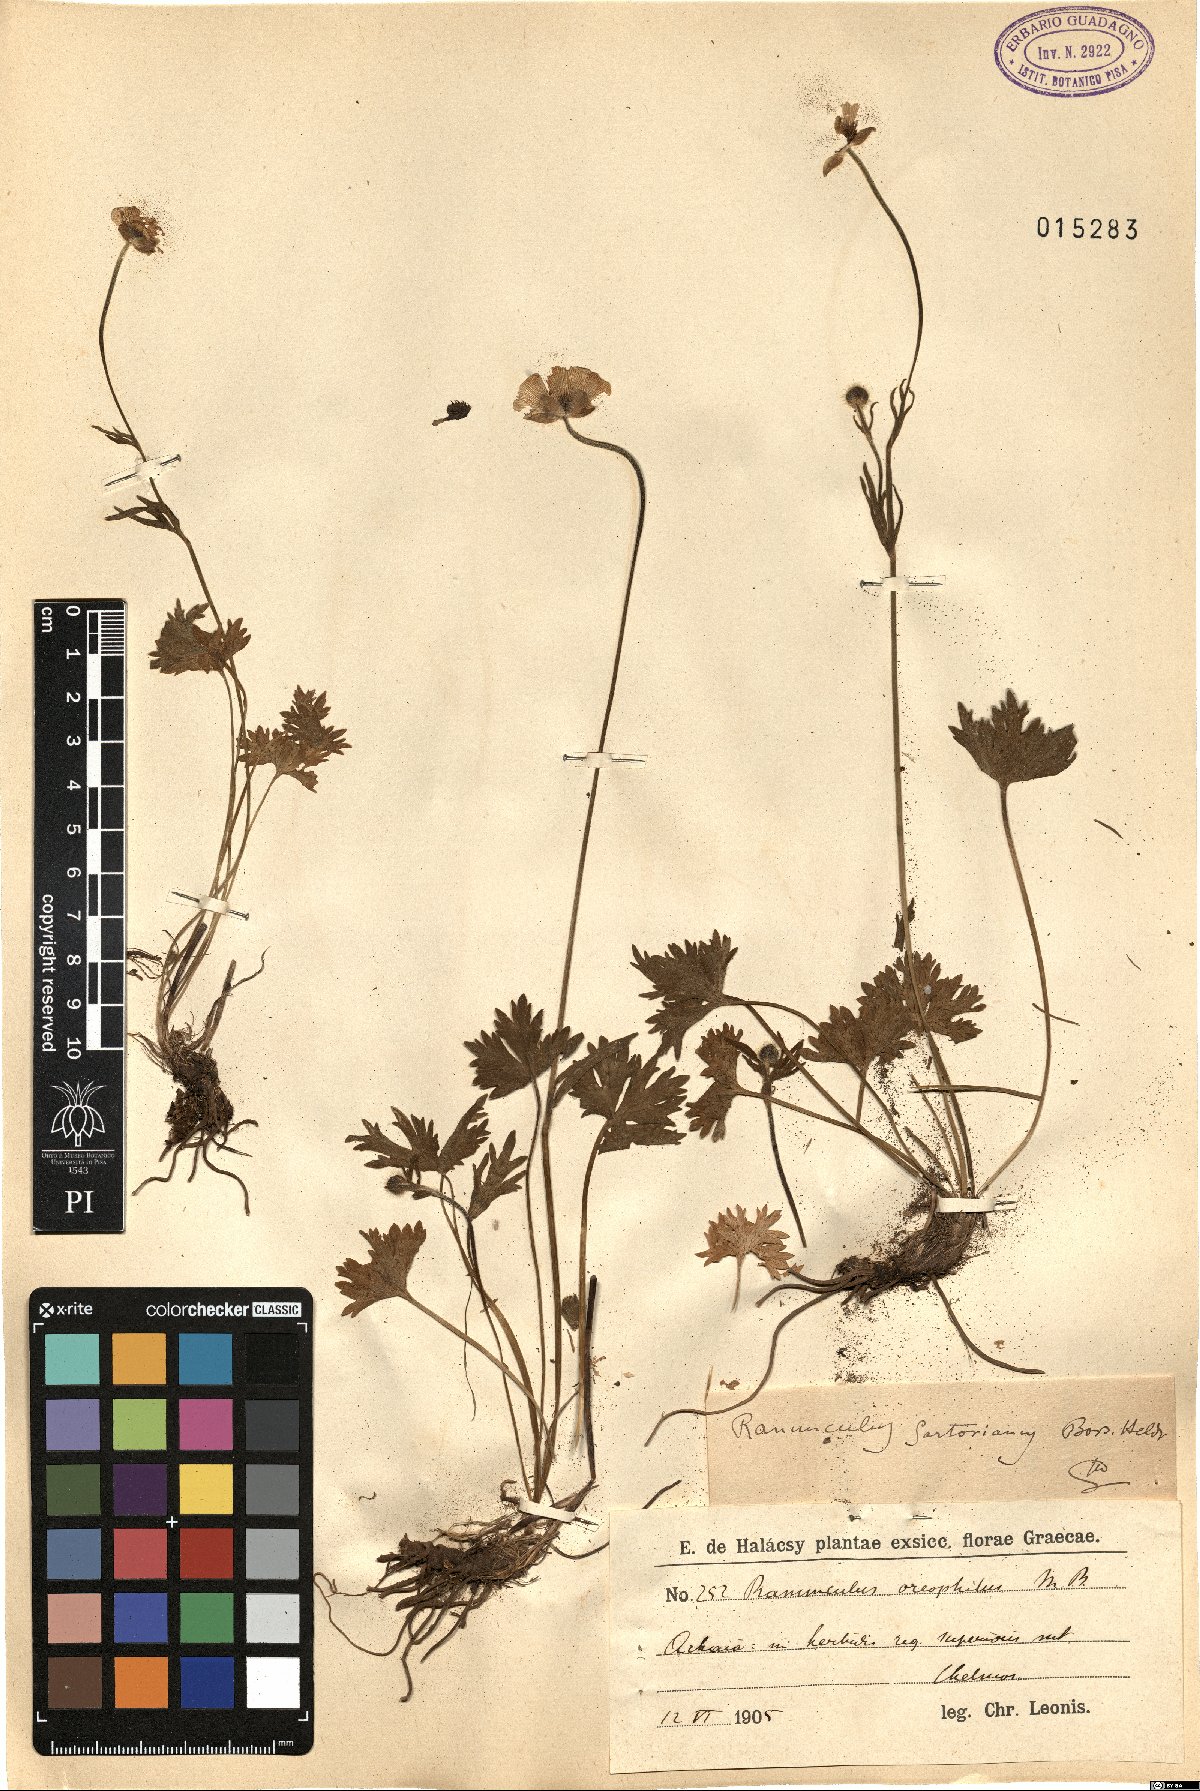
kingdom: Plantae
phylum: Tracheophyta
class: Magnoliopsida
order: Ranunculales
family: Ranunculaceae
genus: Ranunculus
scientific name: Ranunculus sartorianus
